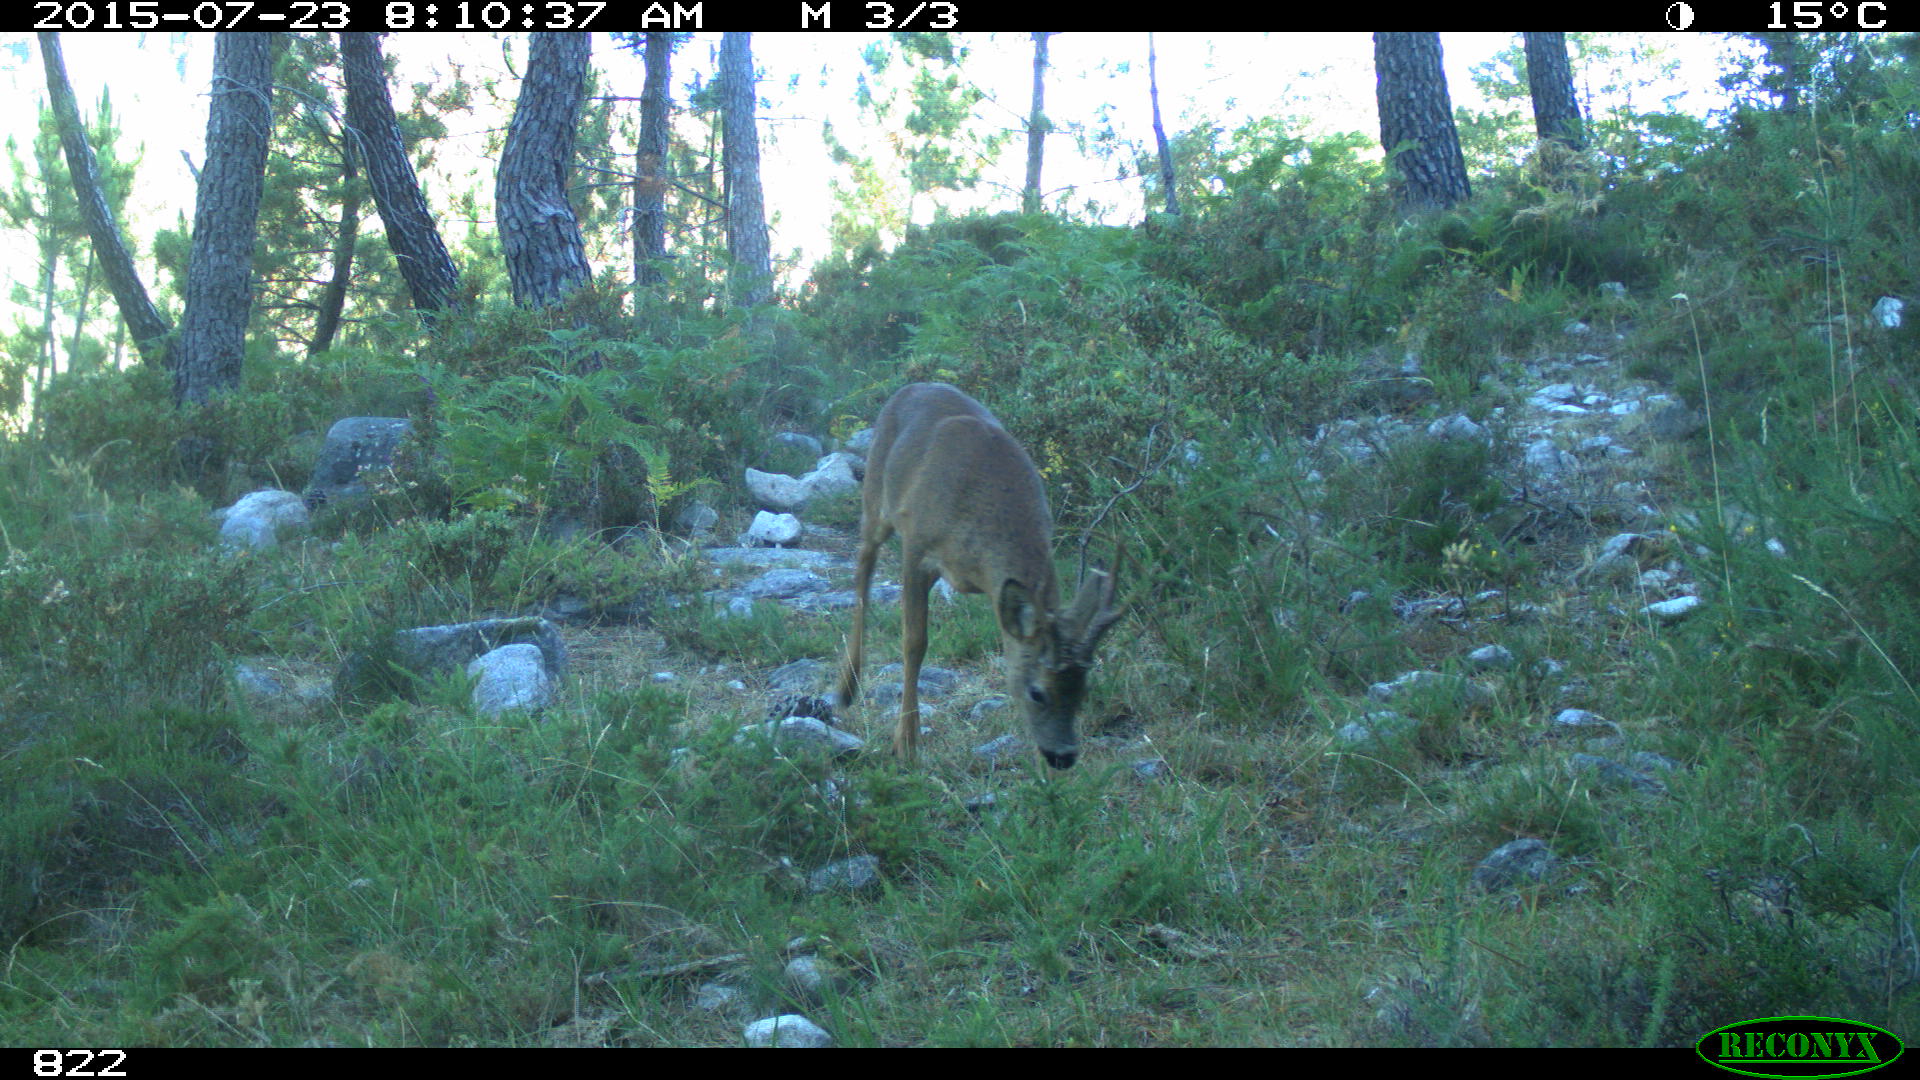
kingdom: Animalia
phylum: Chordata
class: Mammalia
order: Artiodactyla
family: Cervidae
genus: Capreolus
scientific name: Capreolus capreolus
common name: Western roe deer
